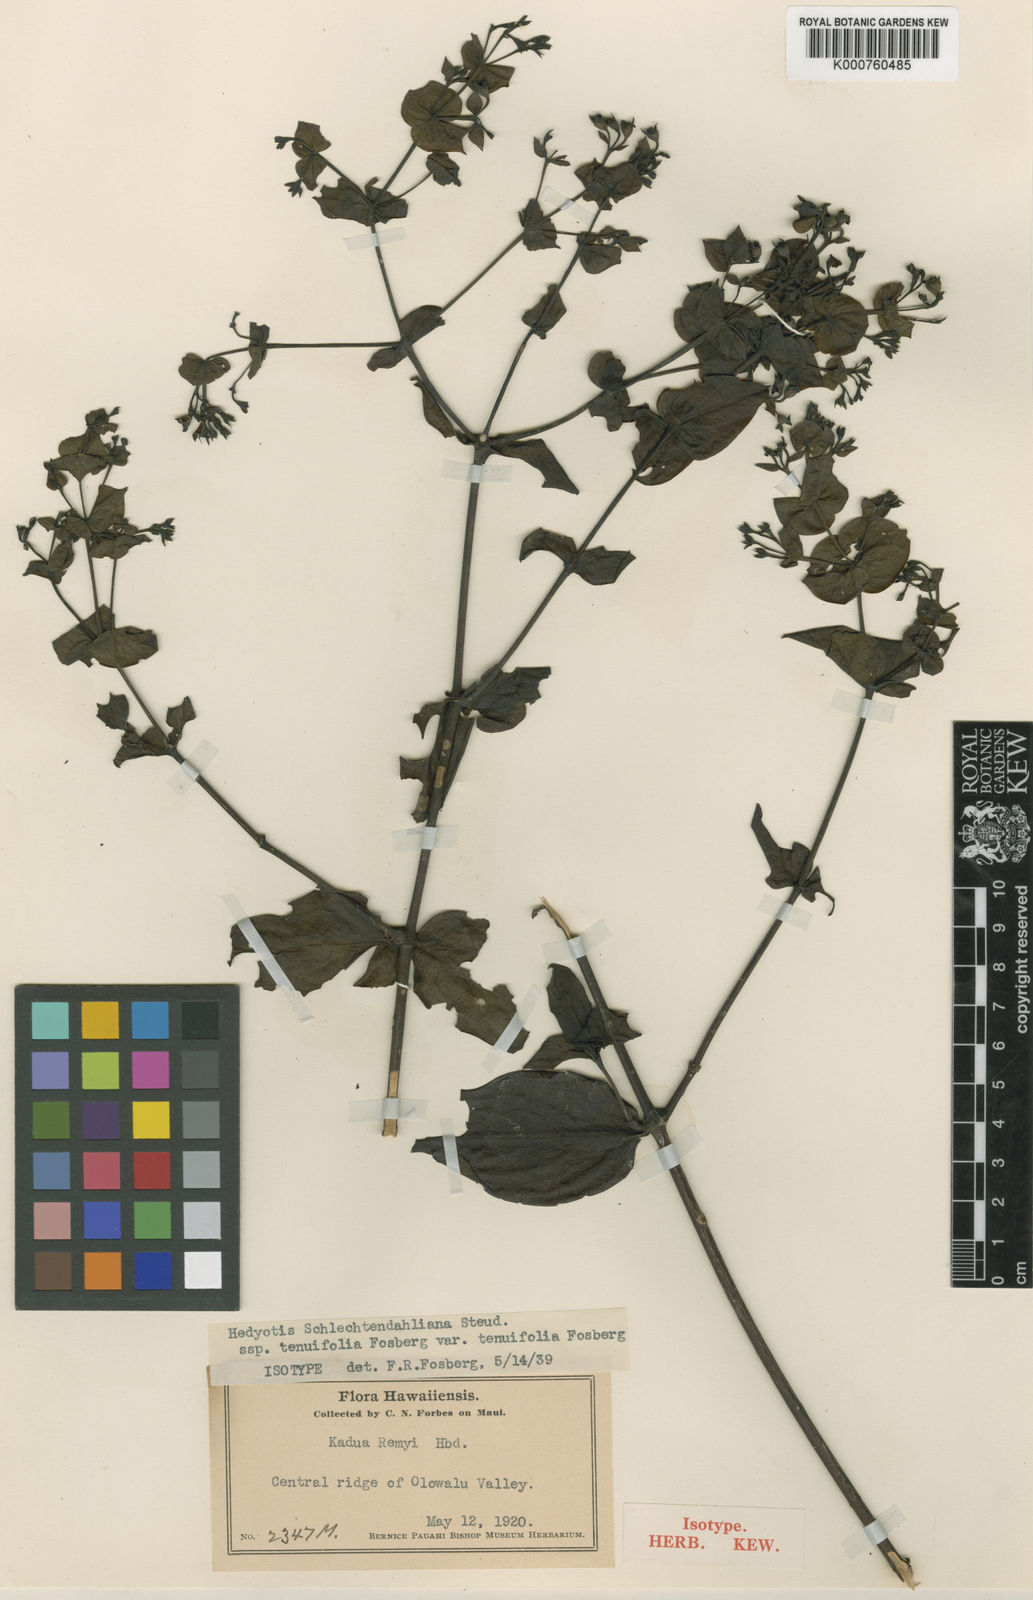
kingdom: Plantae
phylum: Tracheophyta
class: Magnoliopsida
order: Gentianales
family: Rubiaceae
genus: Kadua
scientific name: Kadua cordata
